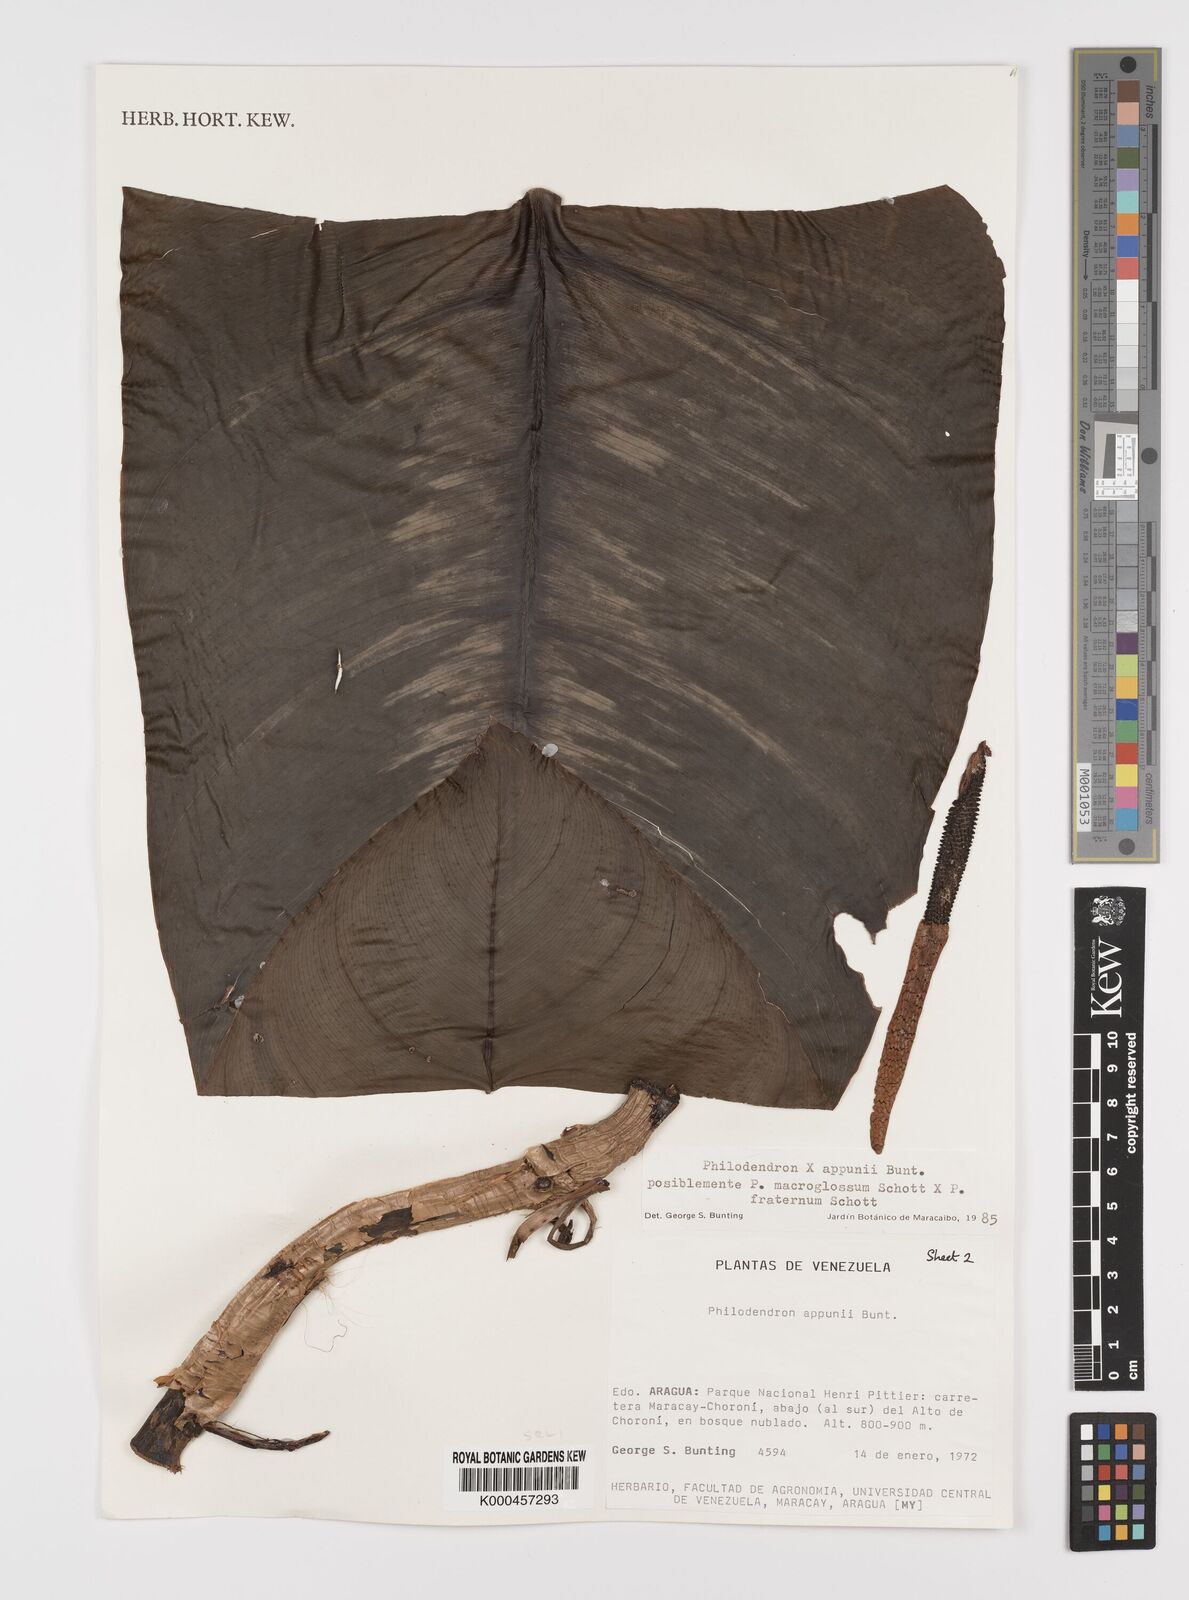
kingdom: Plantae
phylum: Tracheophyta
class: Liliopsida
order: Alismatales
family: Araceae
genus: Philodendron
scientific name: Philodendron appunii
